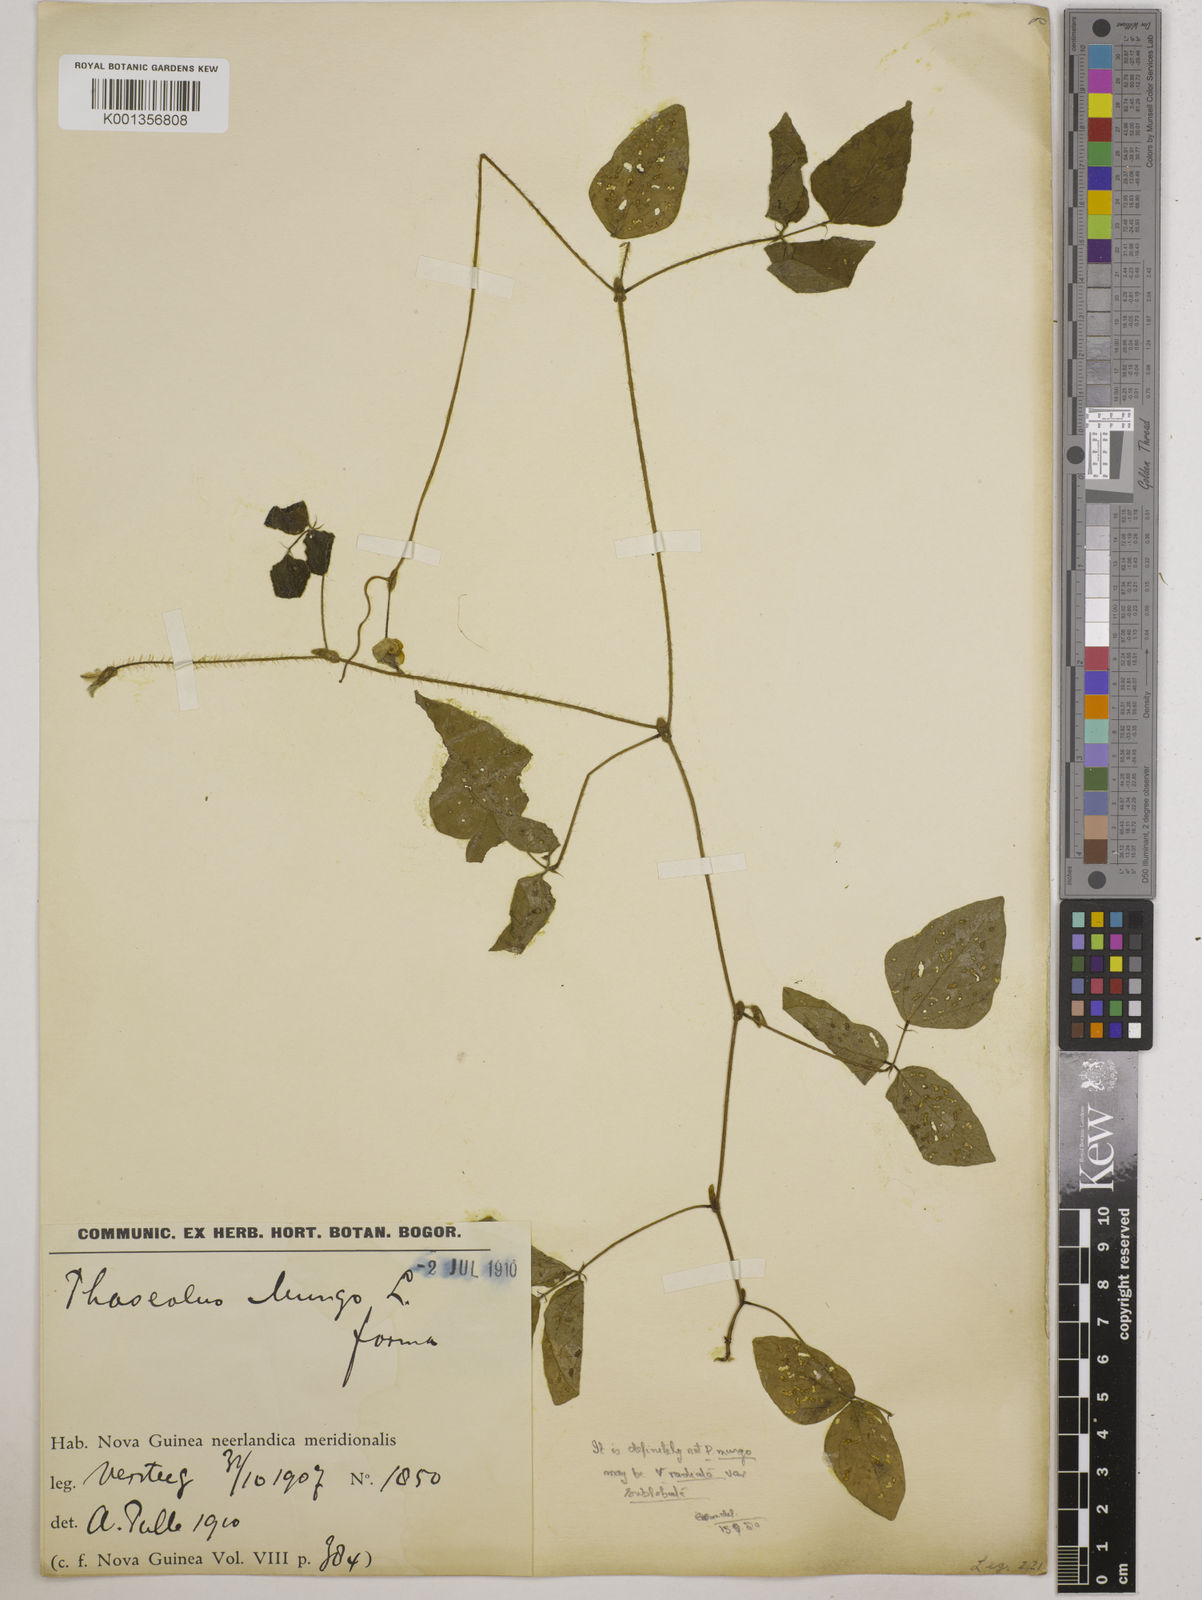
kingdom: Plantae
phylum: Tracheophyta
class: Magnoliopsida
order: Fabales
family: Fabaceae
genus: Vigna
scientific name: Vigna radiata
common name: Mung-bean
